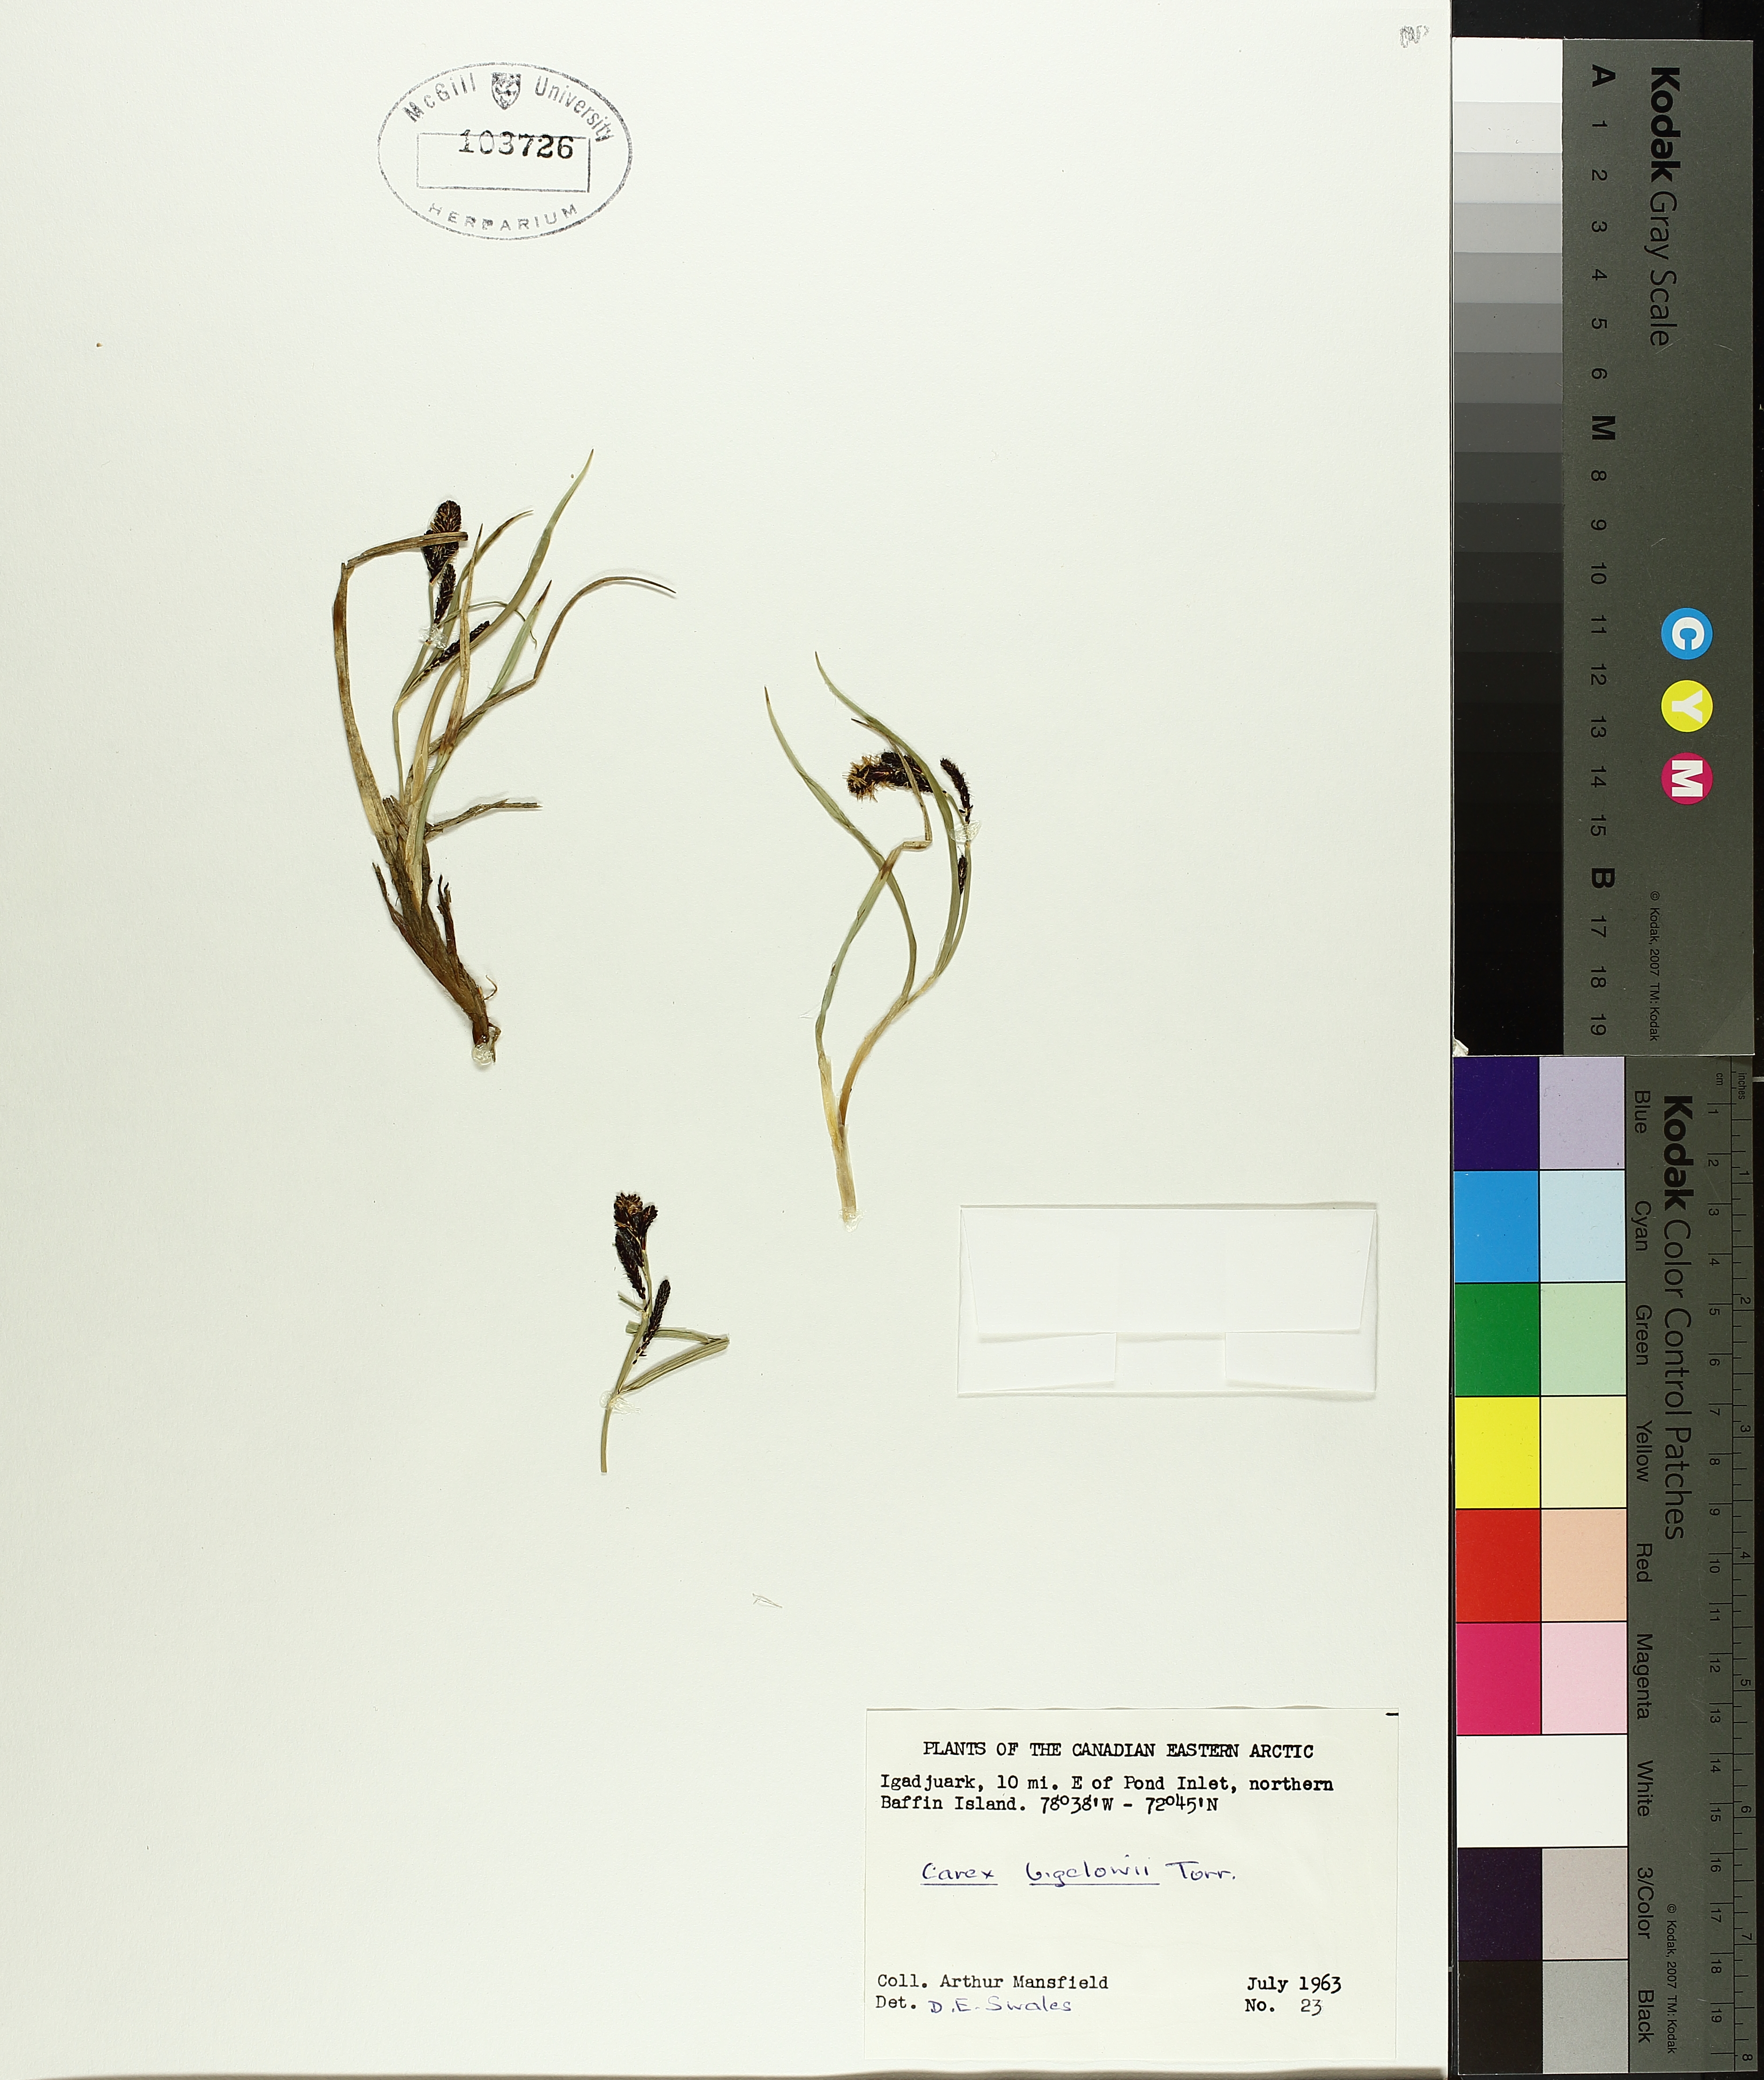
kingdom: Plantae
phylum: Tracheophyta
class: Liliopsida
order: Poales
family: Cyperaceae
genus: Carex
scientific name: Carex bigelowii
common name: Stiff sedge
